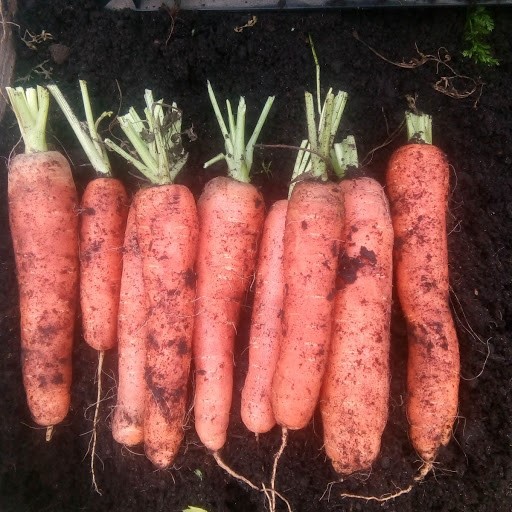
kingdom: Plantae
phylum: Tracheophyta
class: Magnoliopsida
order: Apiales
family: Apiaceae
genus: Daucus
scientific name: Daucus carota
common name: Wild carrot
